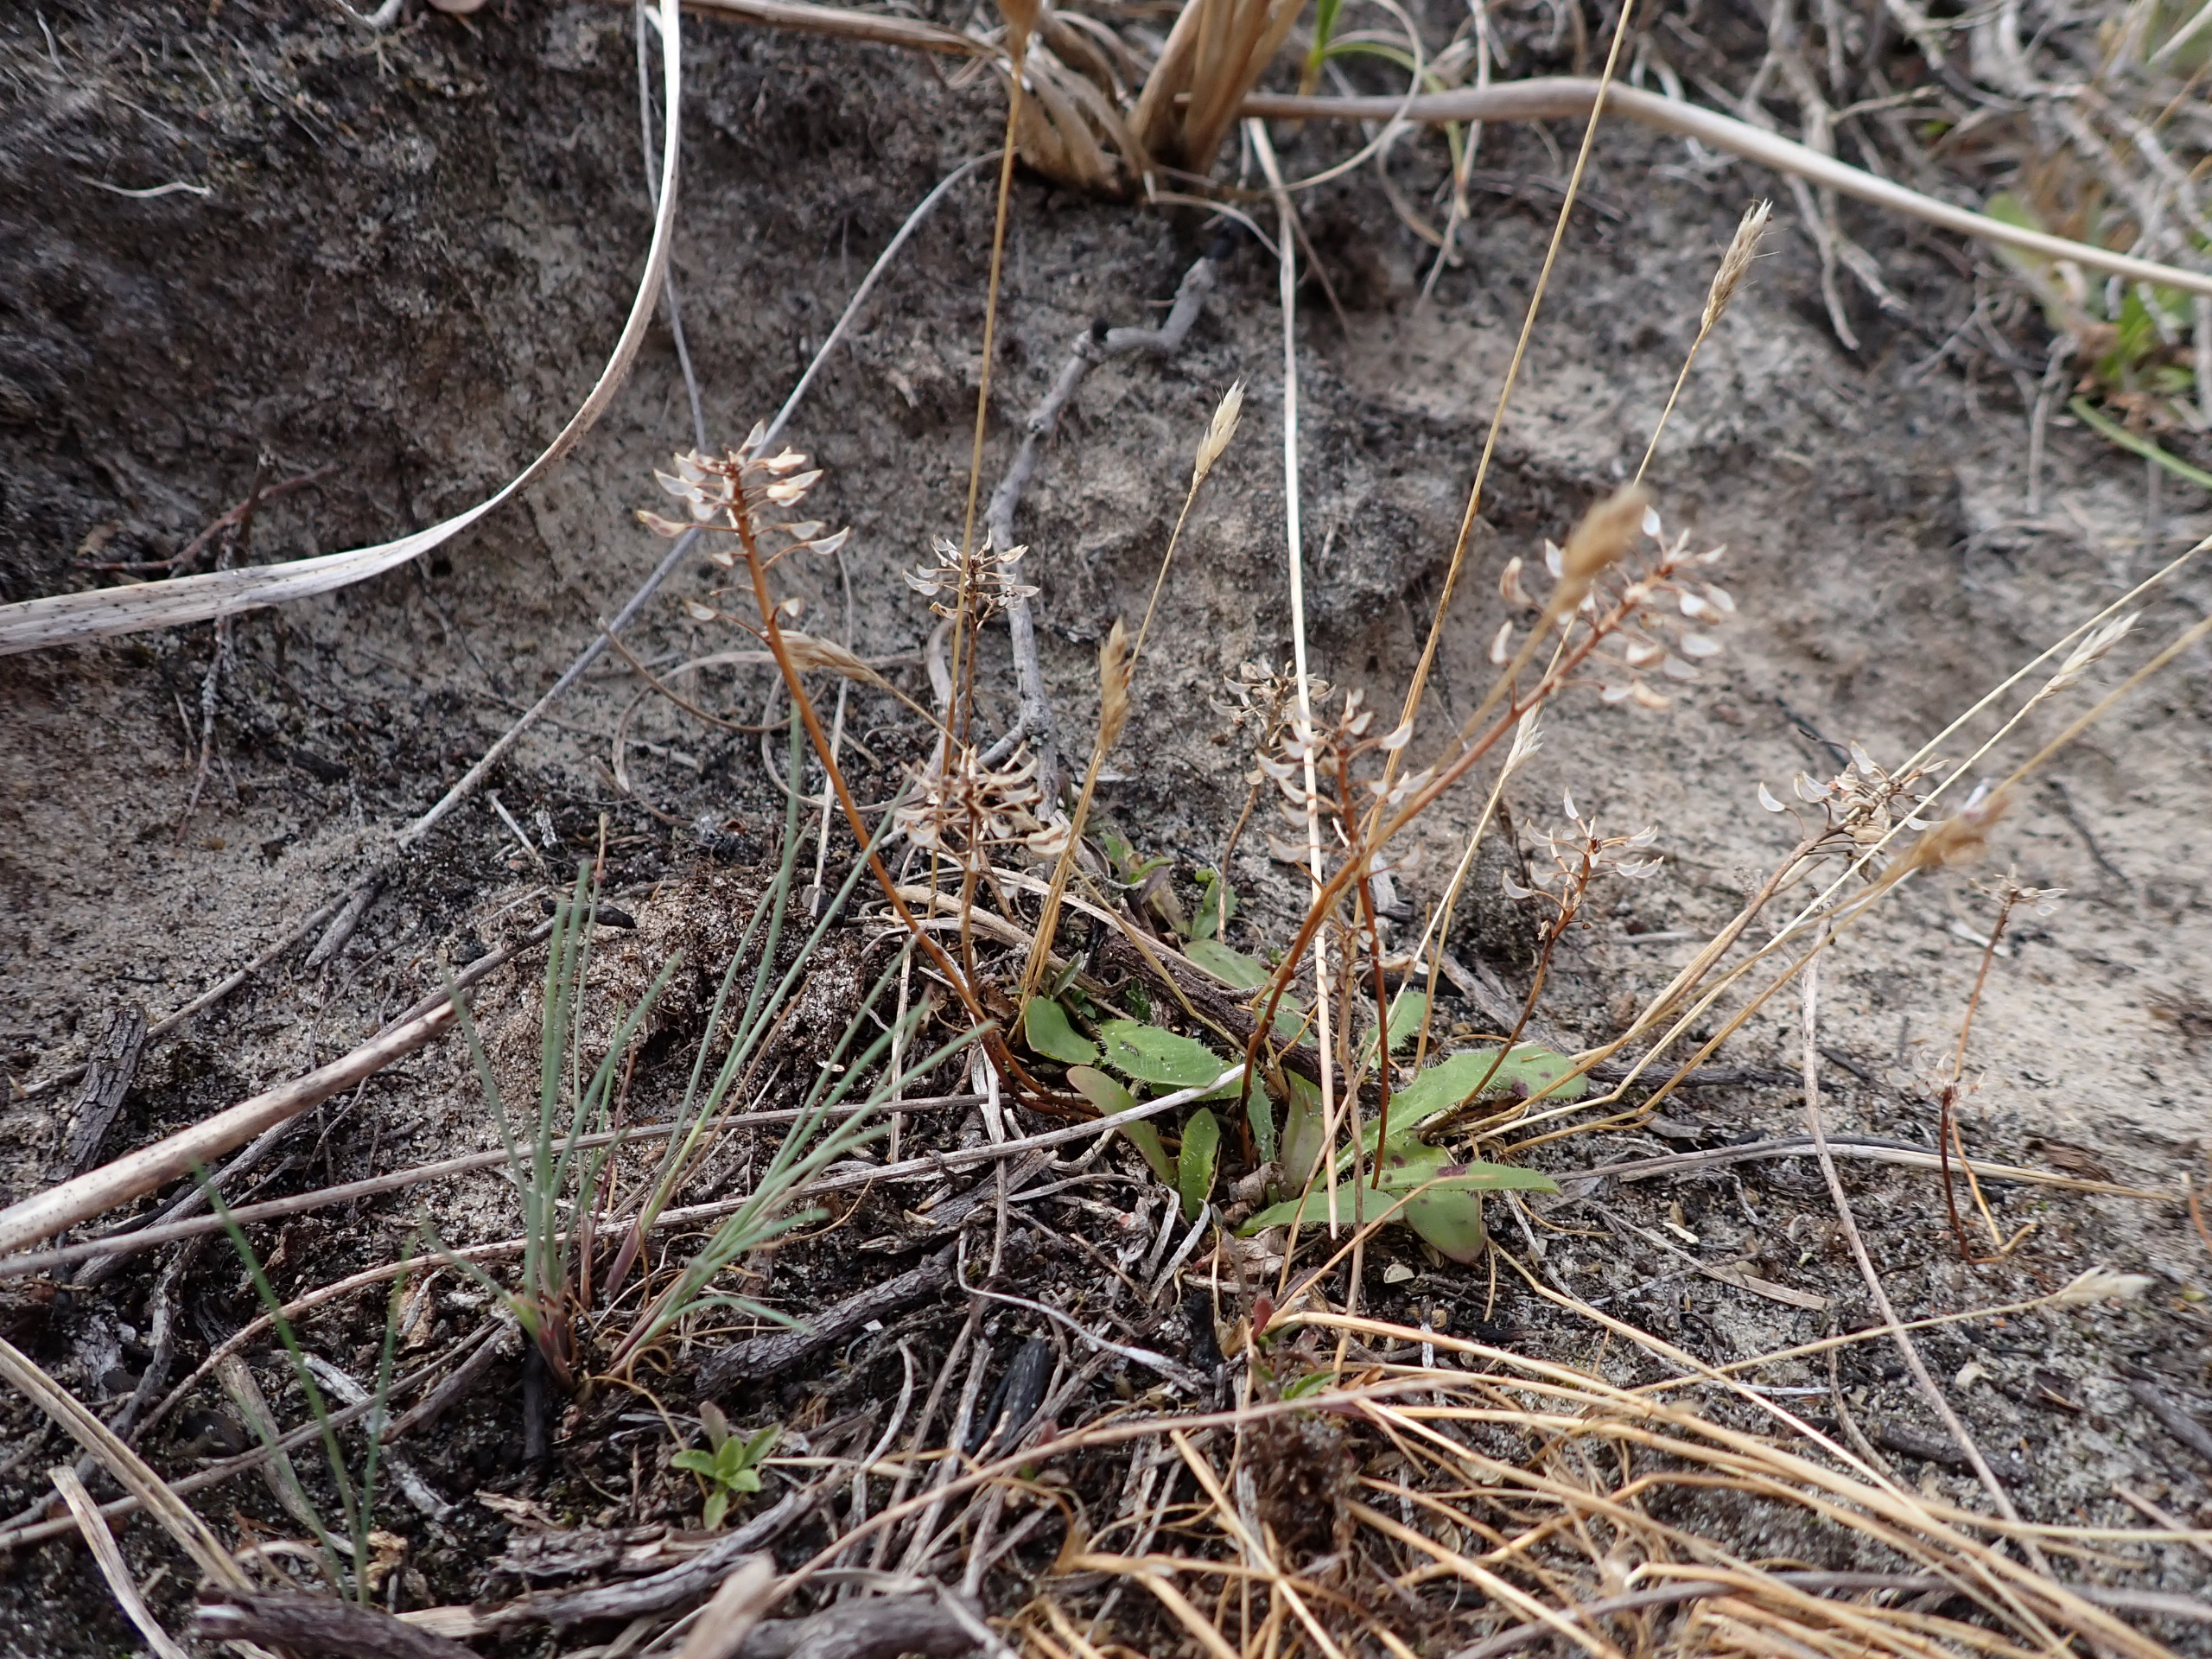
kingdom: Plantae
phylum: Tracheophyta
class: Magnoliopsida
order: Brassicales
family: Brassicaceae
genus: Teesdalia
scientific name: Teesdalia nudicaulis
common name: Flipkrave
